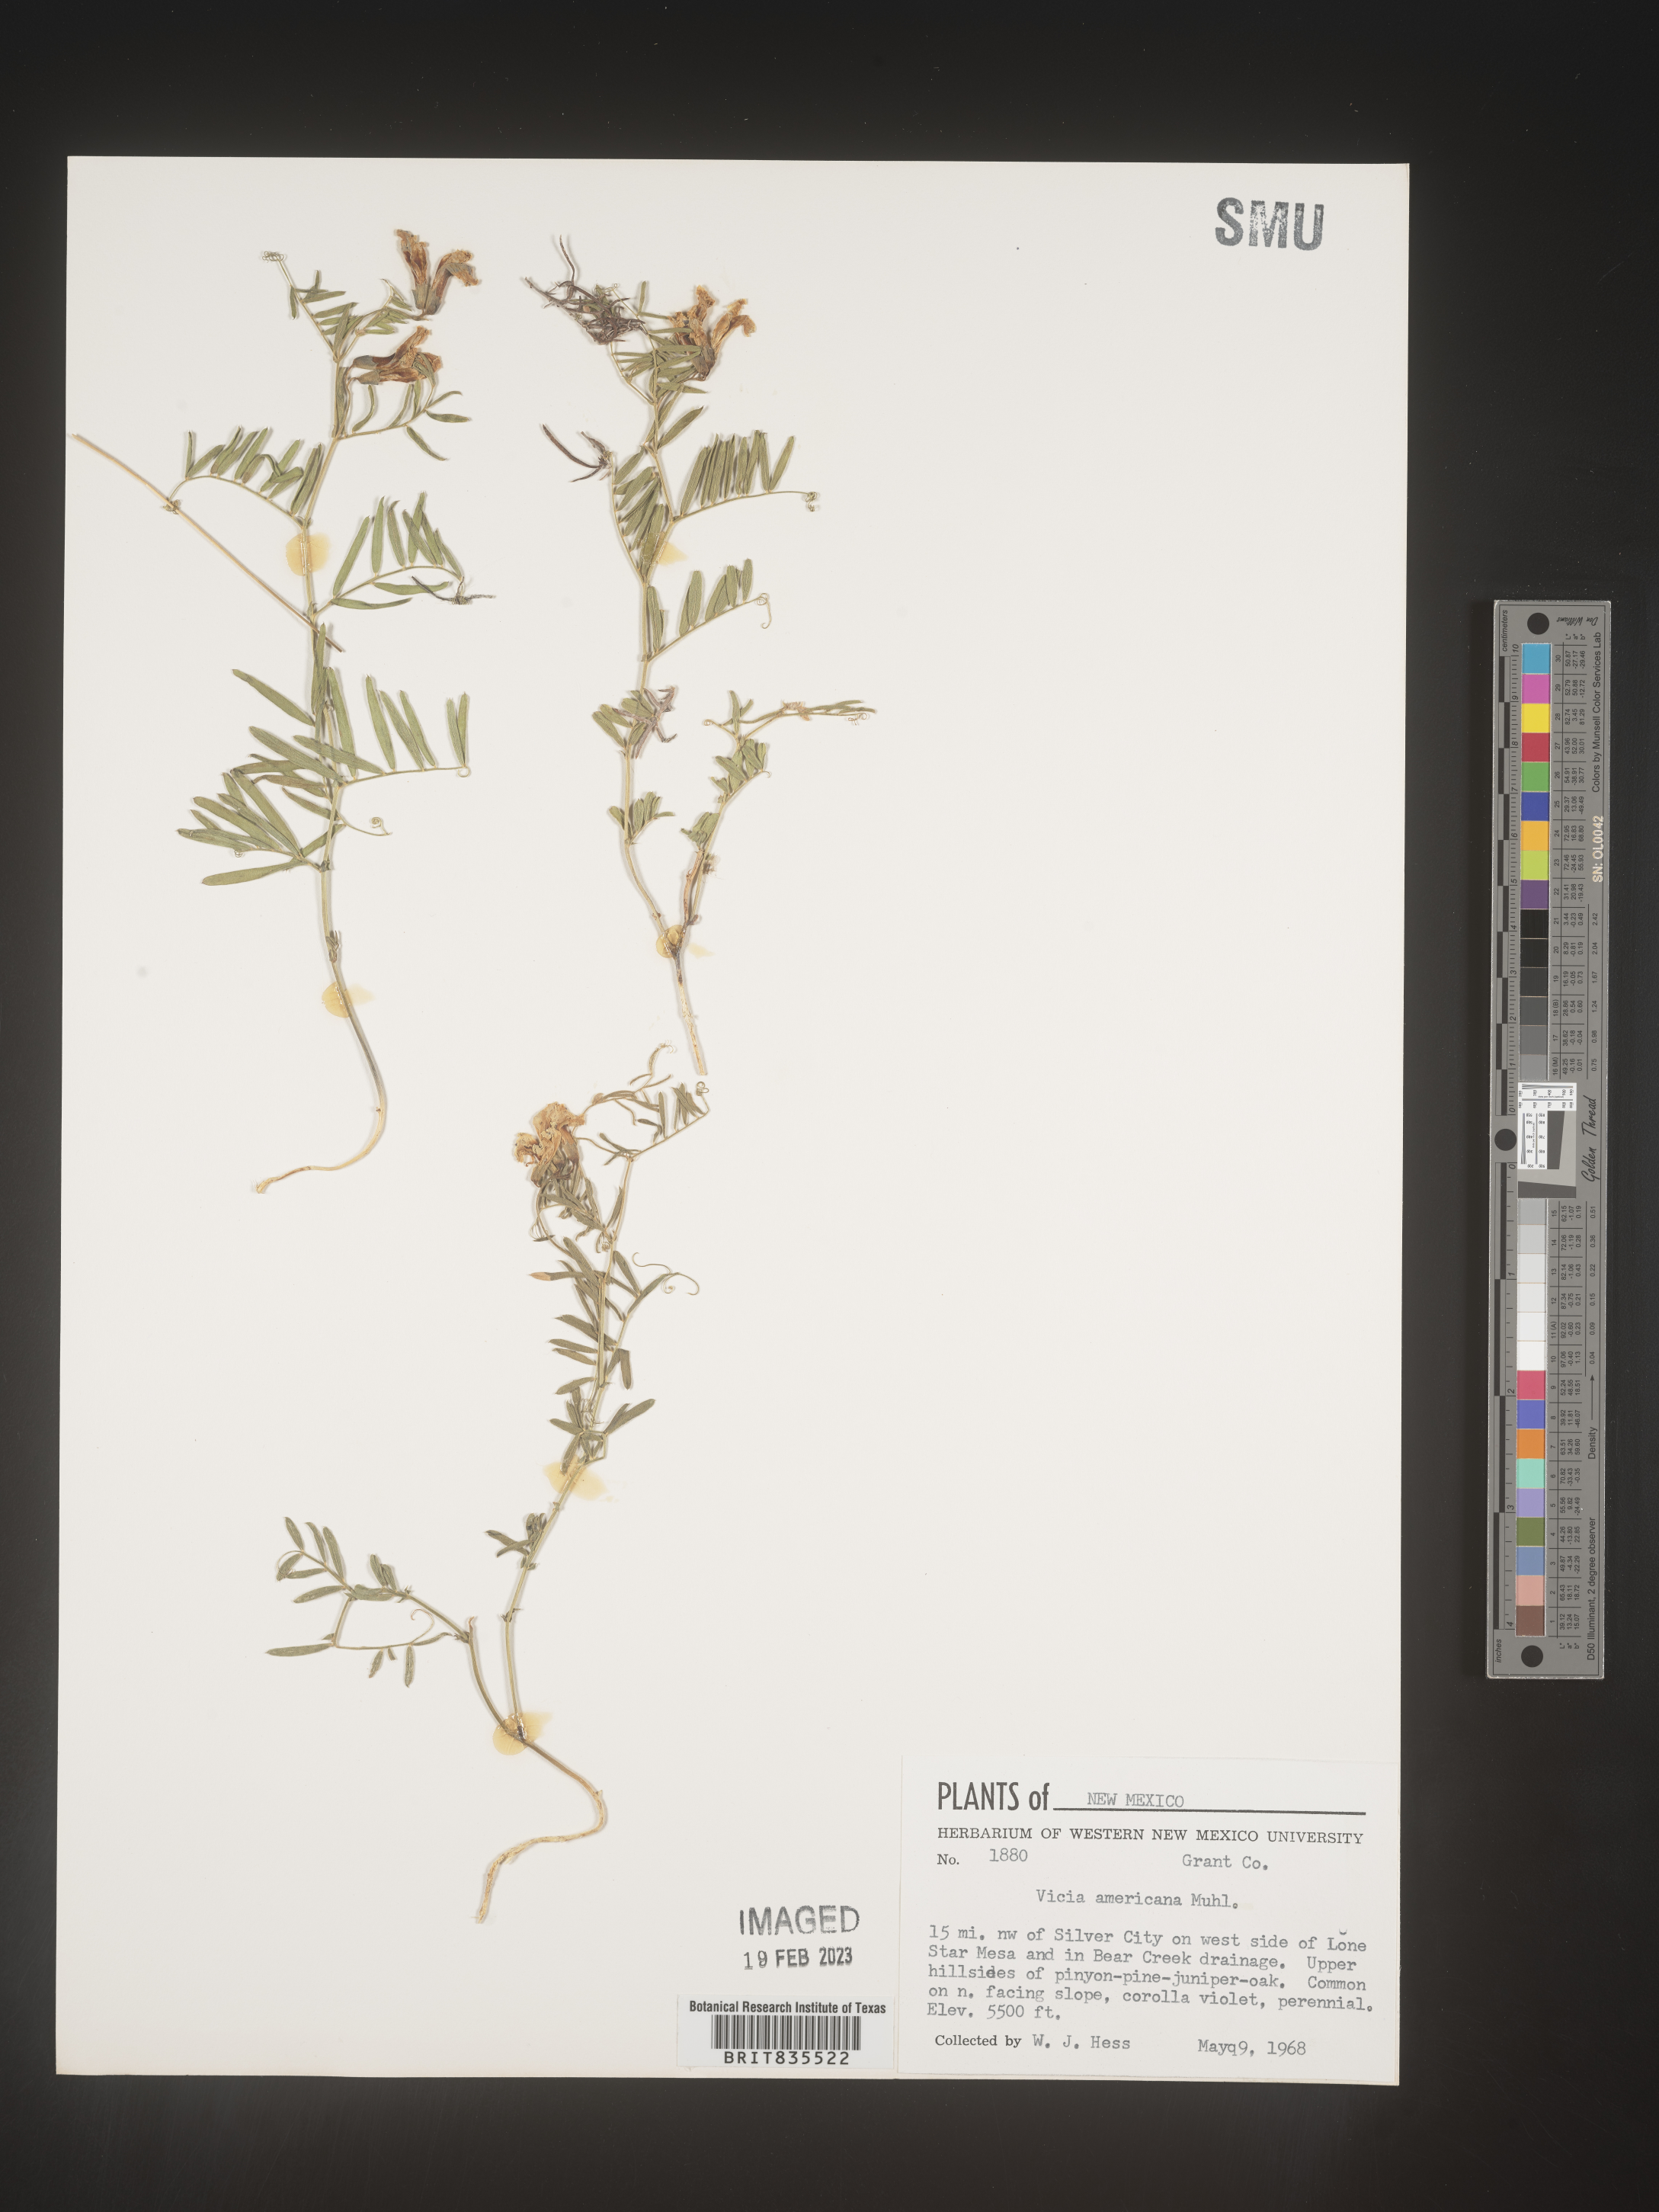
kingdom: Plantae
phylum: Tracheophyta
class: Magnoliopsida
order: Fabales
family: Fabaceae
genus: Vicia
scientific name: Vicia americana
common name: American vetch
